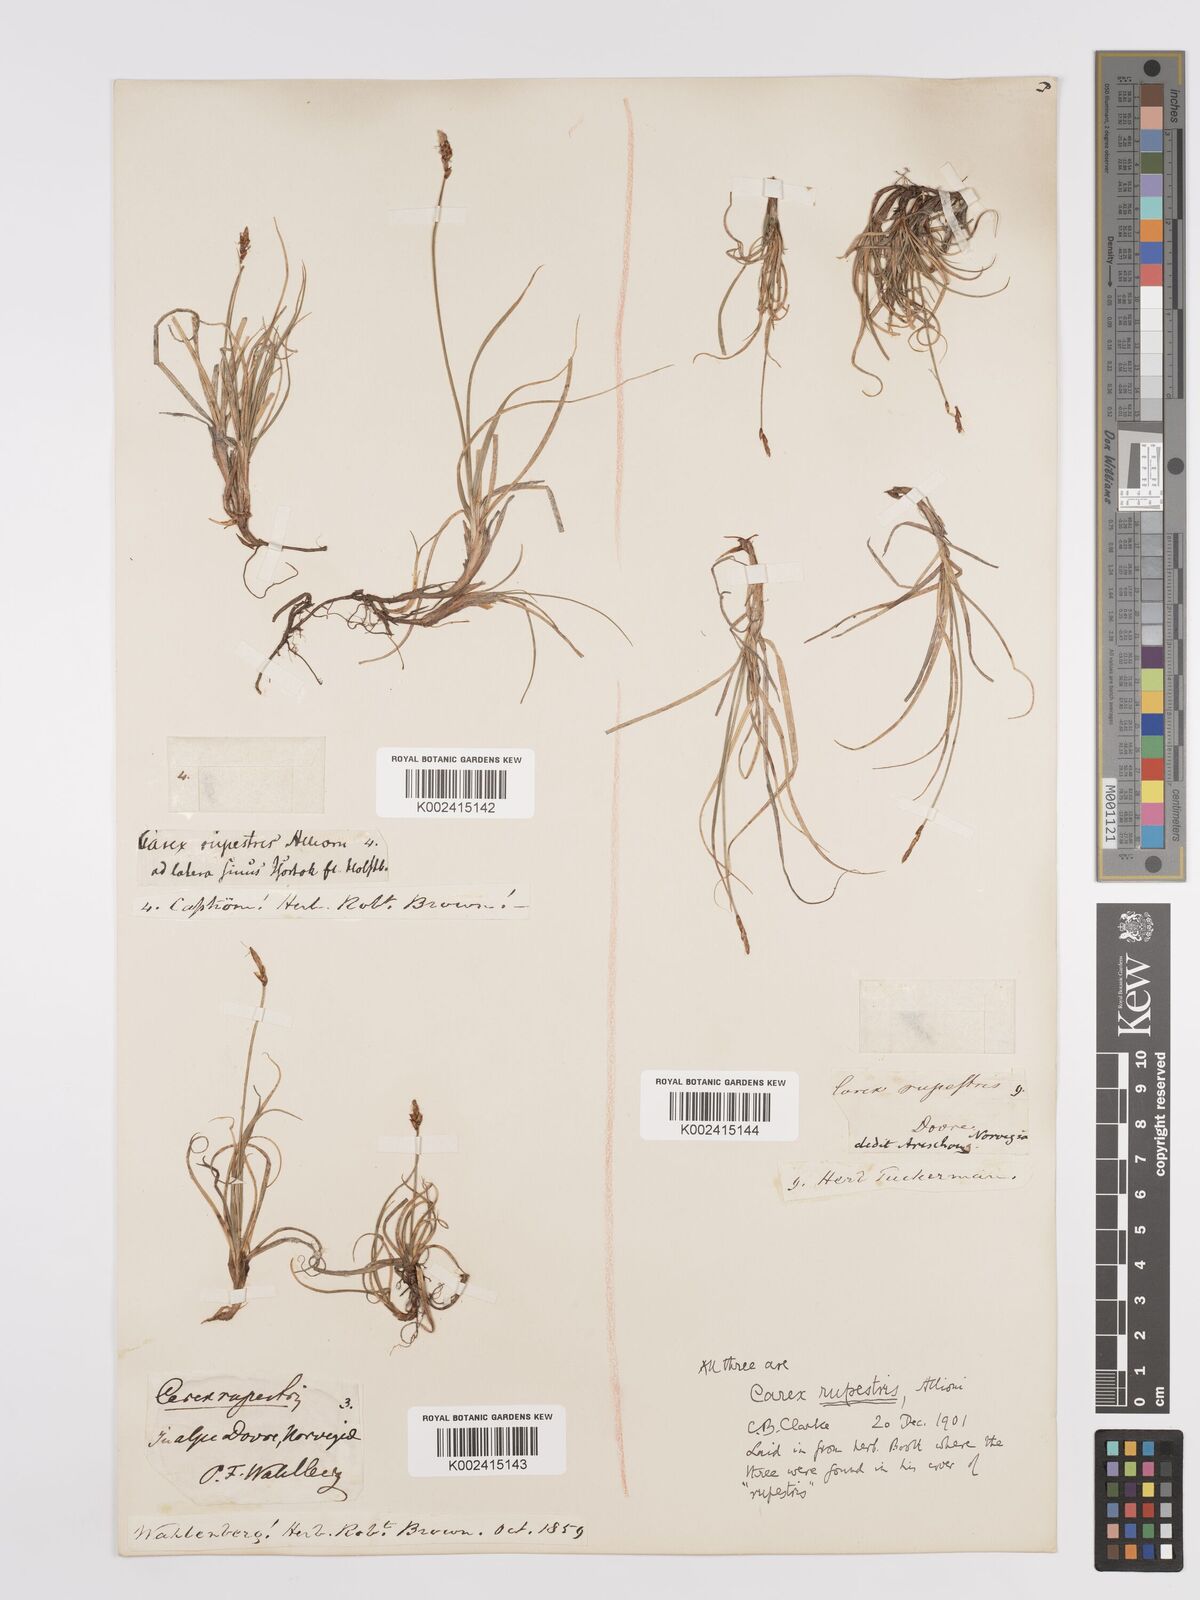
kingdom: Plantae
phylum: Tracheophyta
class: Liliopsida
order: Poales
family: Cyperaceae
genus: Carex
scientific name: Carex rupestris
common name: Rock sedge
